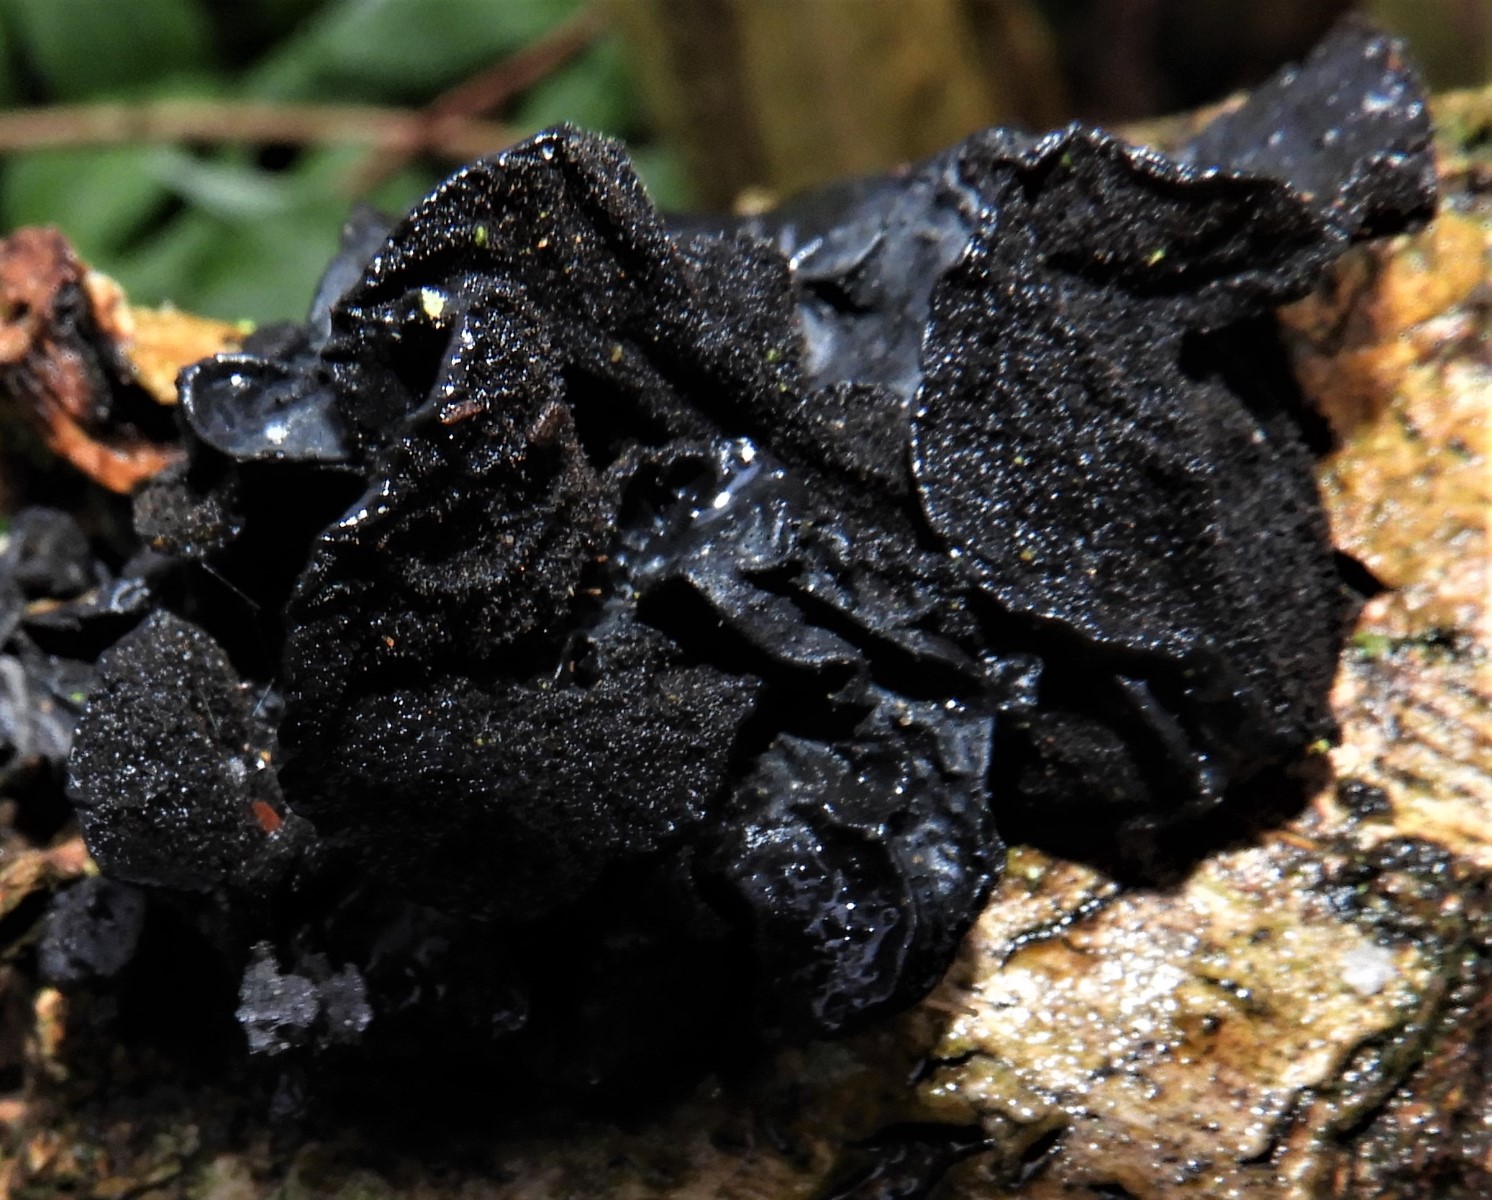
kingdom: Fungi
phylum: Basidiomycota
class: Agaricomycetes
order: Auriculariales
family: Auriculariaceae
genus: Exidia
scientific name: Exidia glandulosa
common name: ege-bævretop
